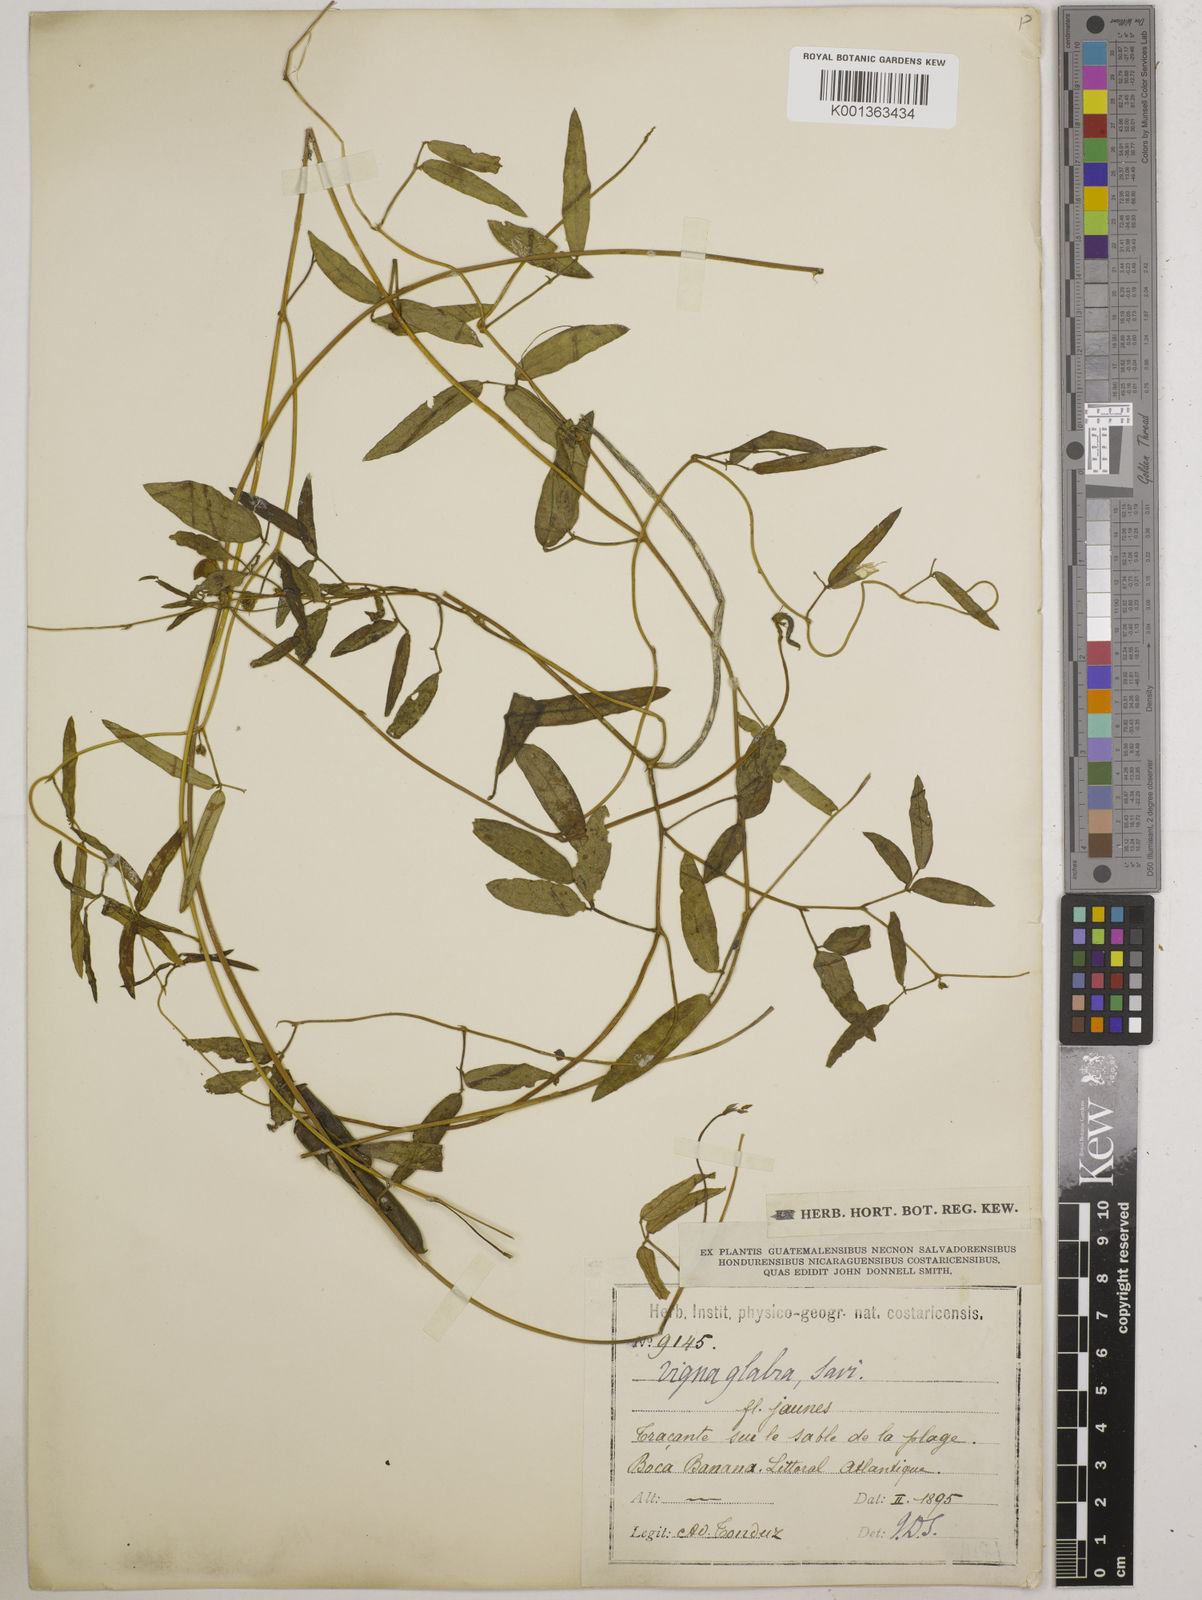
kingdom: Plantae
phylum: Tracheophyta
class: Magnoliopsida
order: Fabales
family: Fabaceae
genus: Vigna
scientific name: Vigna luteola
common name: Hairypod cowpea
